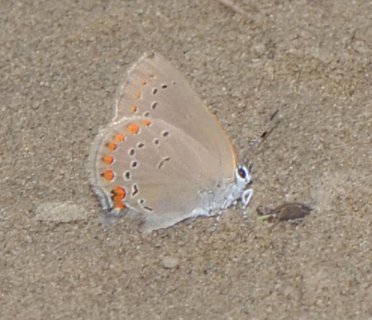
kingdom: Animalia
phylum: Arthropoda
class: Insecta
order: Lepidoptera
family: Lycaenidae
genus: Harkenclenus
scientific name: Harkenclenus titus
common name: Coral Hairstreak
